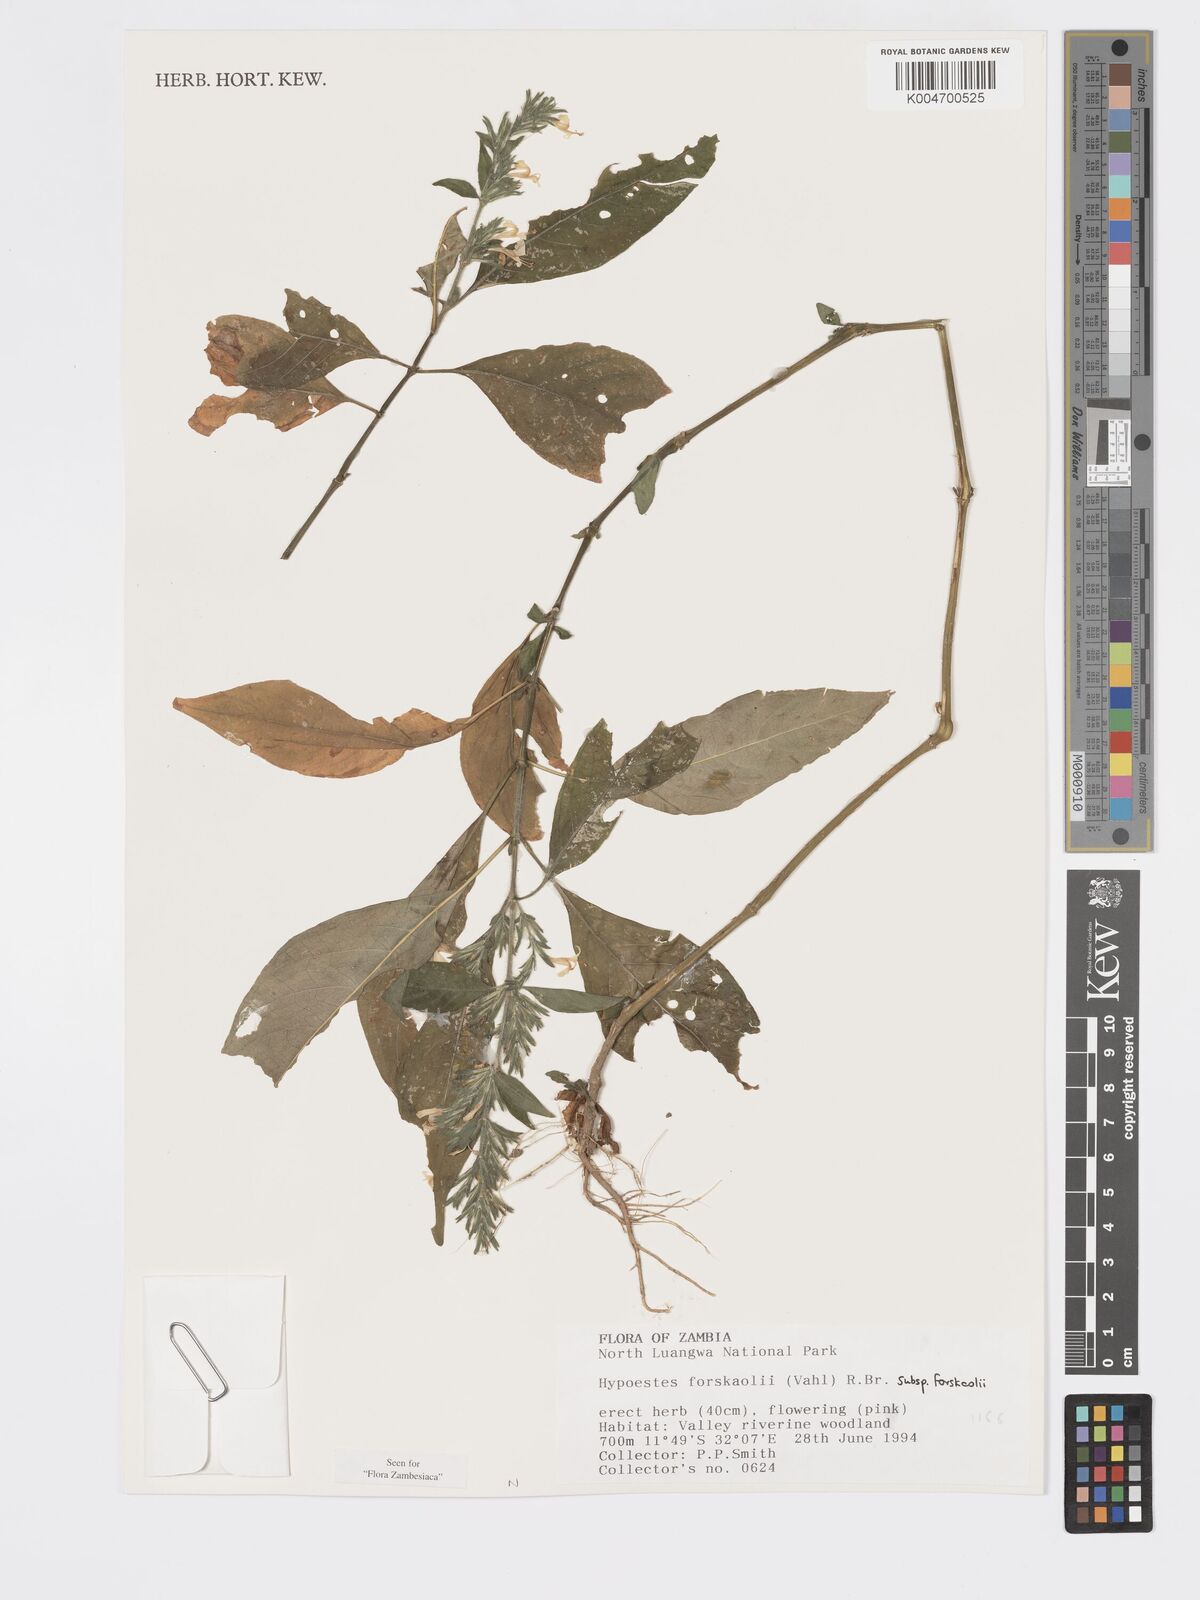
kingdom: Plantae
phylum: Tracheophyta
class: Magnoliopsida
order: Lamiales
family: Acanthaceae
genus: Hypoestes
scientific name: Hypoestes forskaolii
